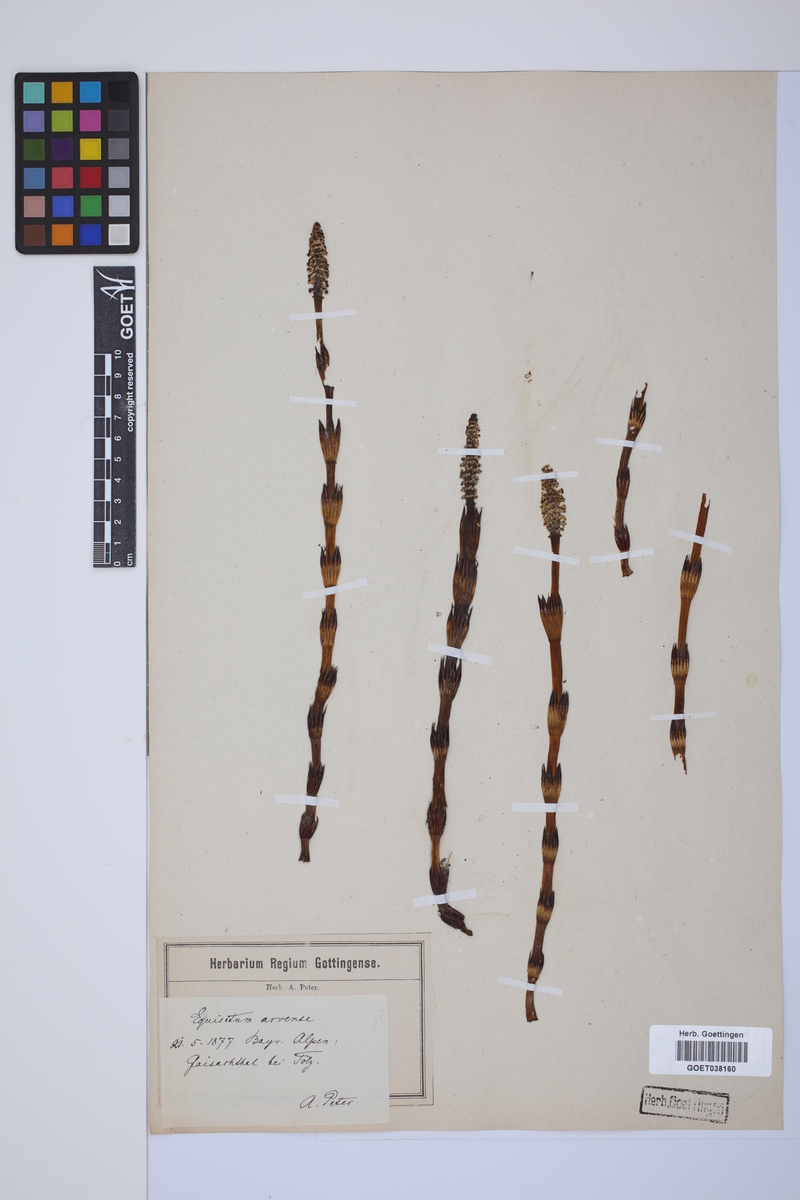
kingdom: Plantae
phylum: Tracheophyta
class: Polypodiopsida
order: Equisetales
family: Equisetaceae
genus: Equisetum
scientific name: Equisetum arvense
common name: Field horsetail
